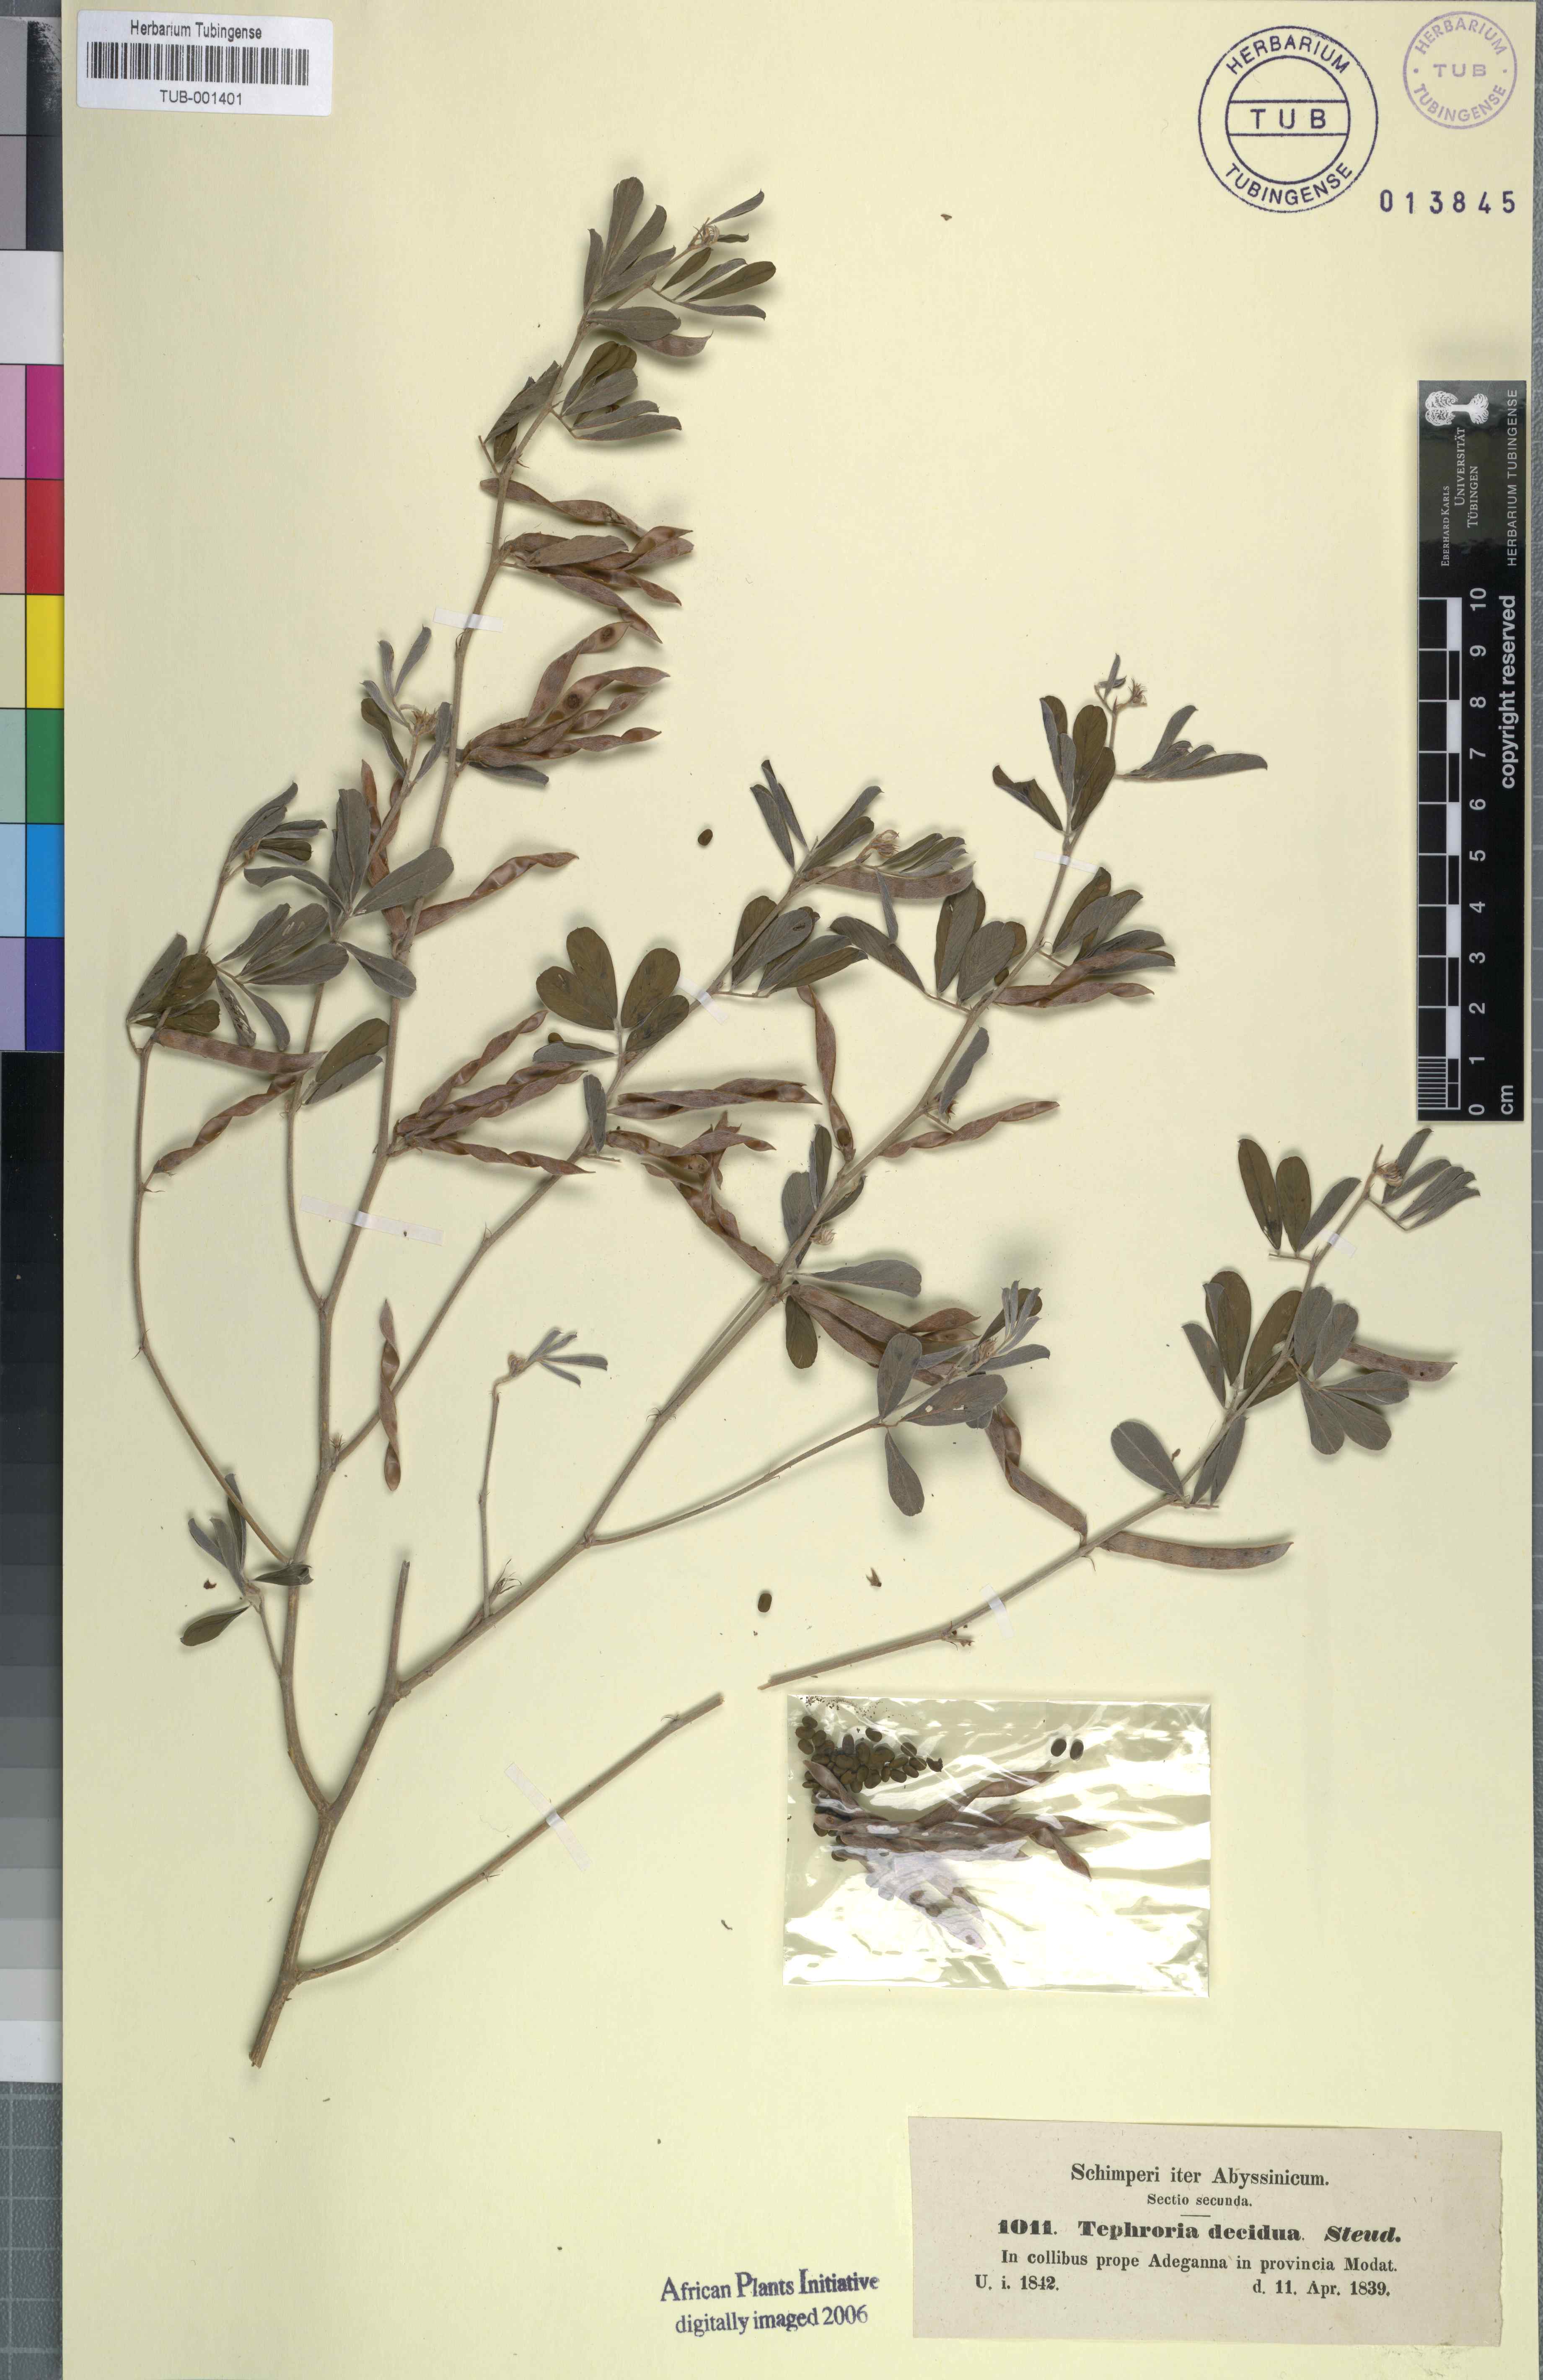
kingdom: Plantae
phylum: Tracheophyta
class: Magnoliopsida
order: Fabales
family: Fabaceae
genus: Tephrosia
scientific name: Tephrosia subtriflora
